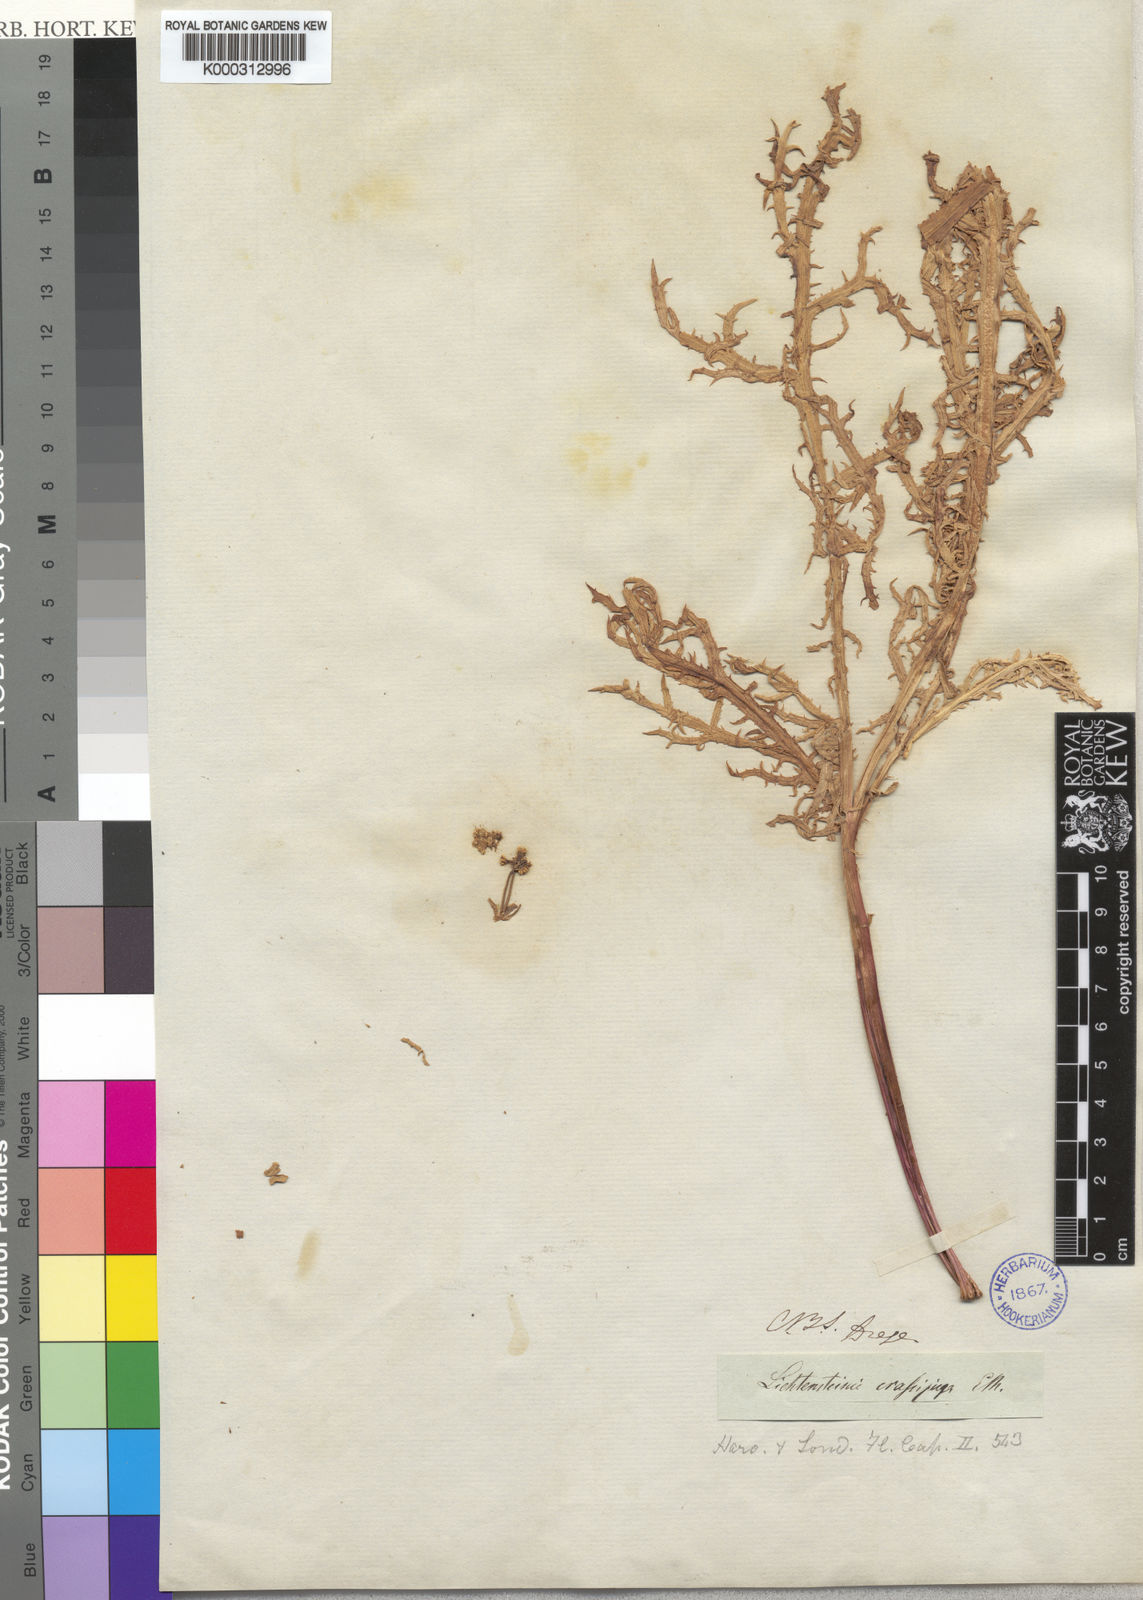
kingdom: Plantae
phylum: Tracheophyta
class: Magnoliopsida
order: Apiales
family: Apiaceae
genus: Lichtensteinia
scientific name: Lichtensteinia crassijuga
